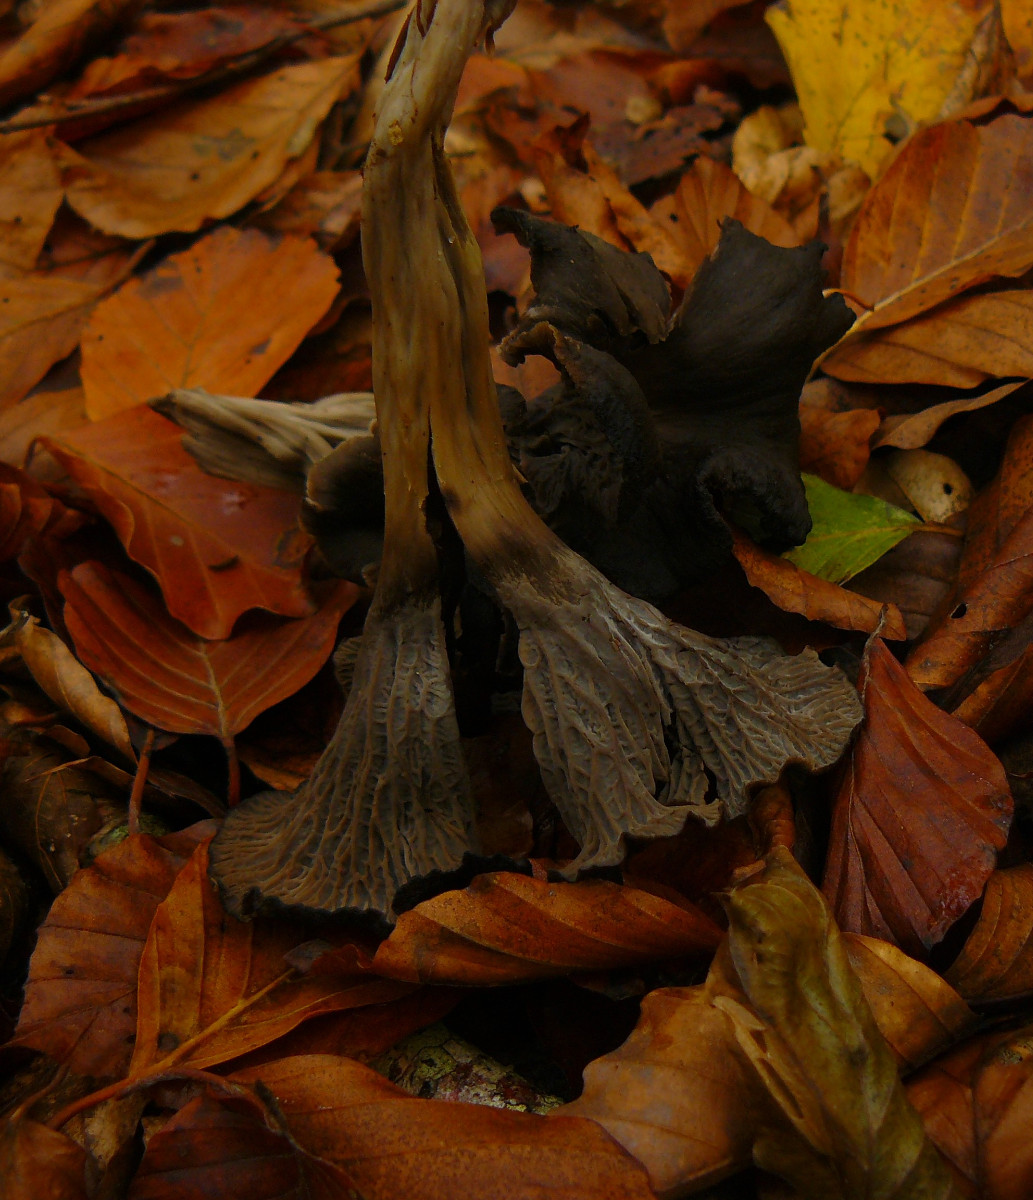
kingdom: Fungi
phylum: Basidiomycota
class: Agaricomycetes
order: Cantharellales
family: Hydnaceae
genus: Cantharellus
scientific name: Cantharellus cinereus
